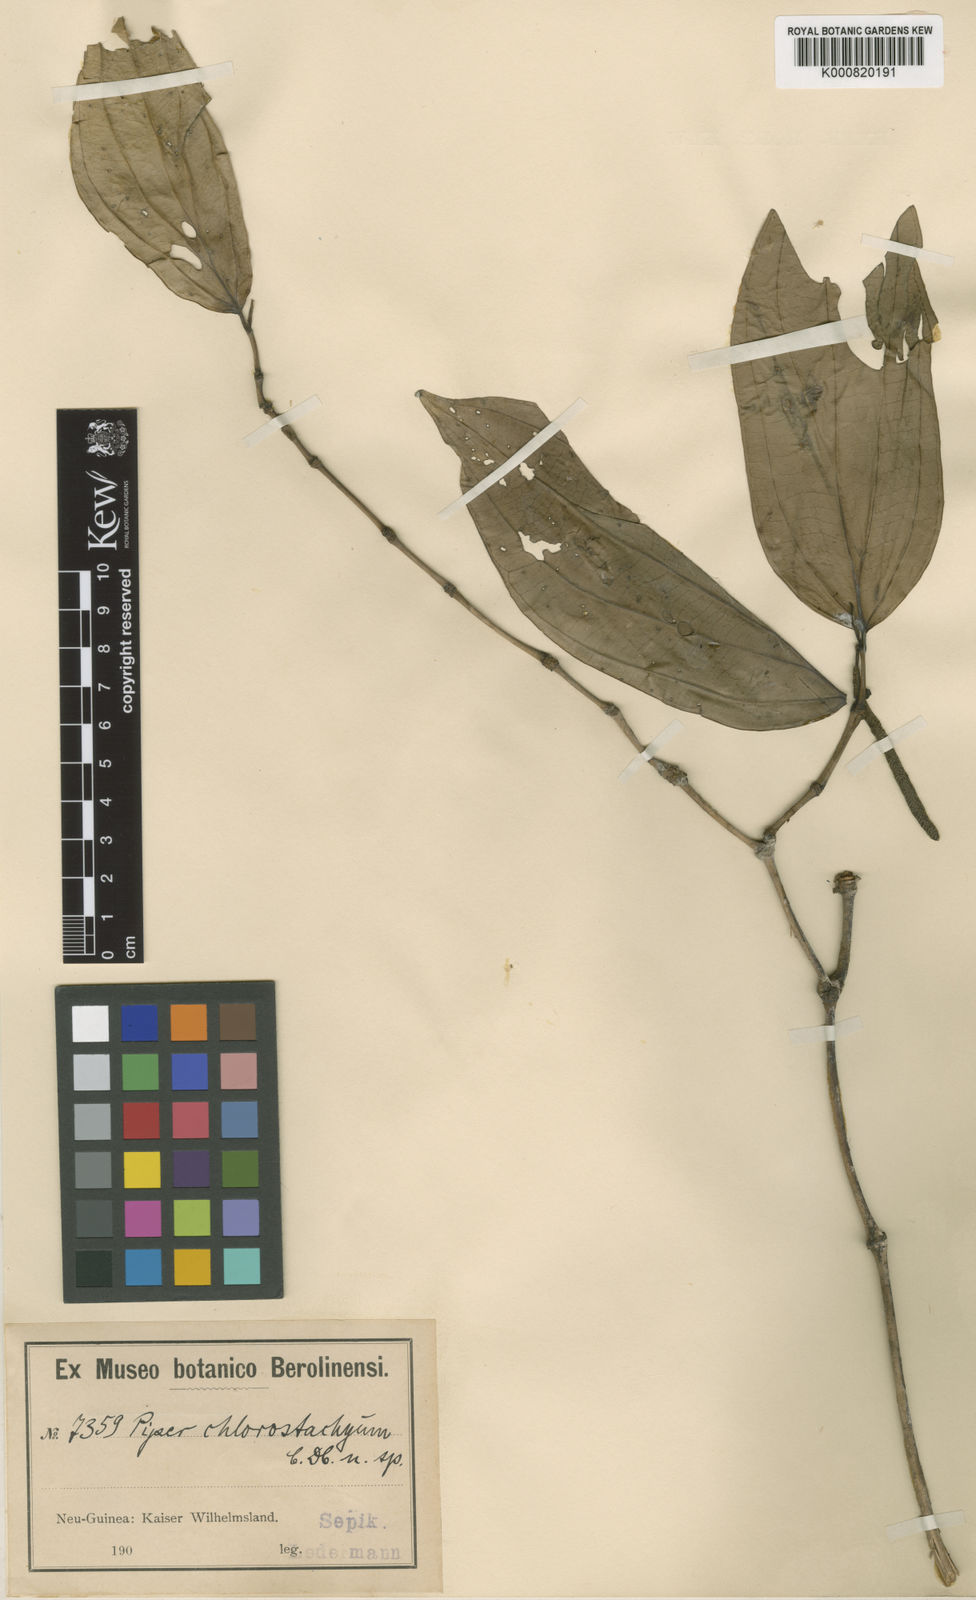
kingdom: Plantae
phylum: Tracheophyta
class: Magnoliopsida
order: Piperales
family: Piperaceae
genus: Piper
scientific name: Piper chlorostachyum
